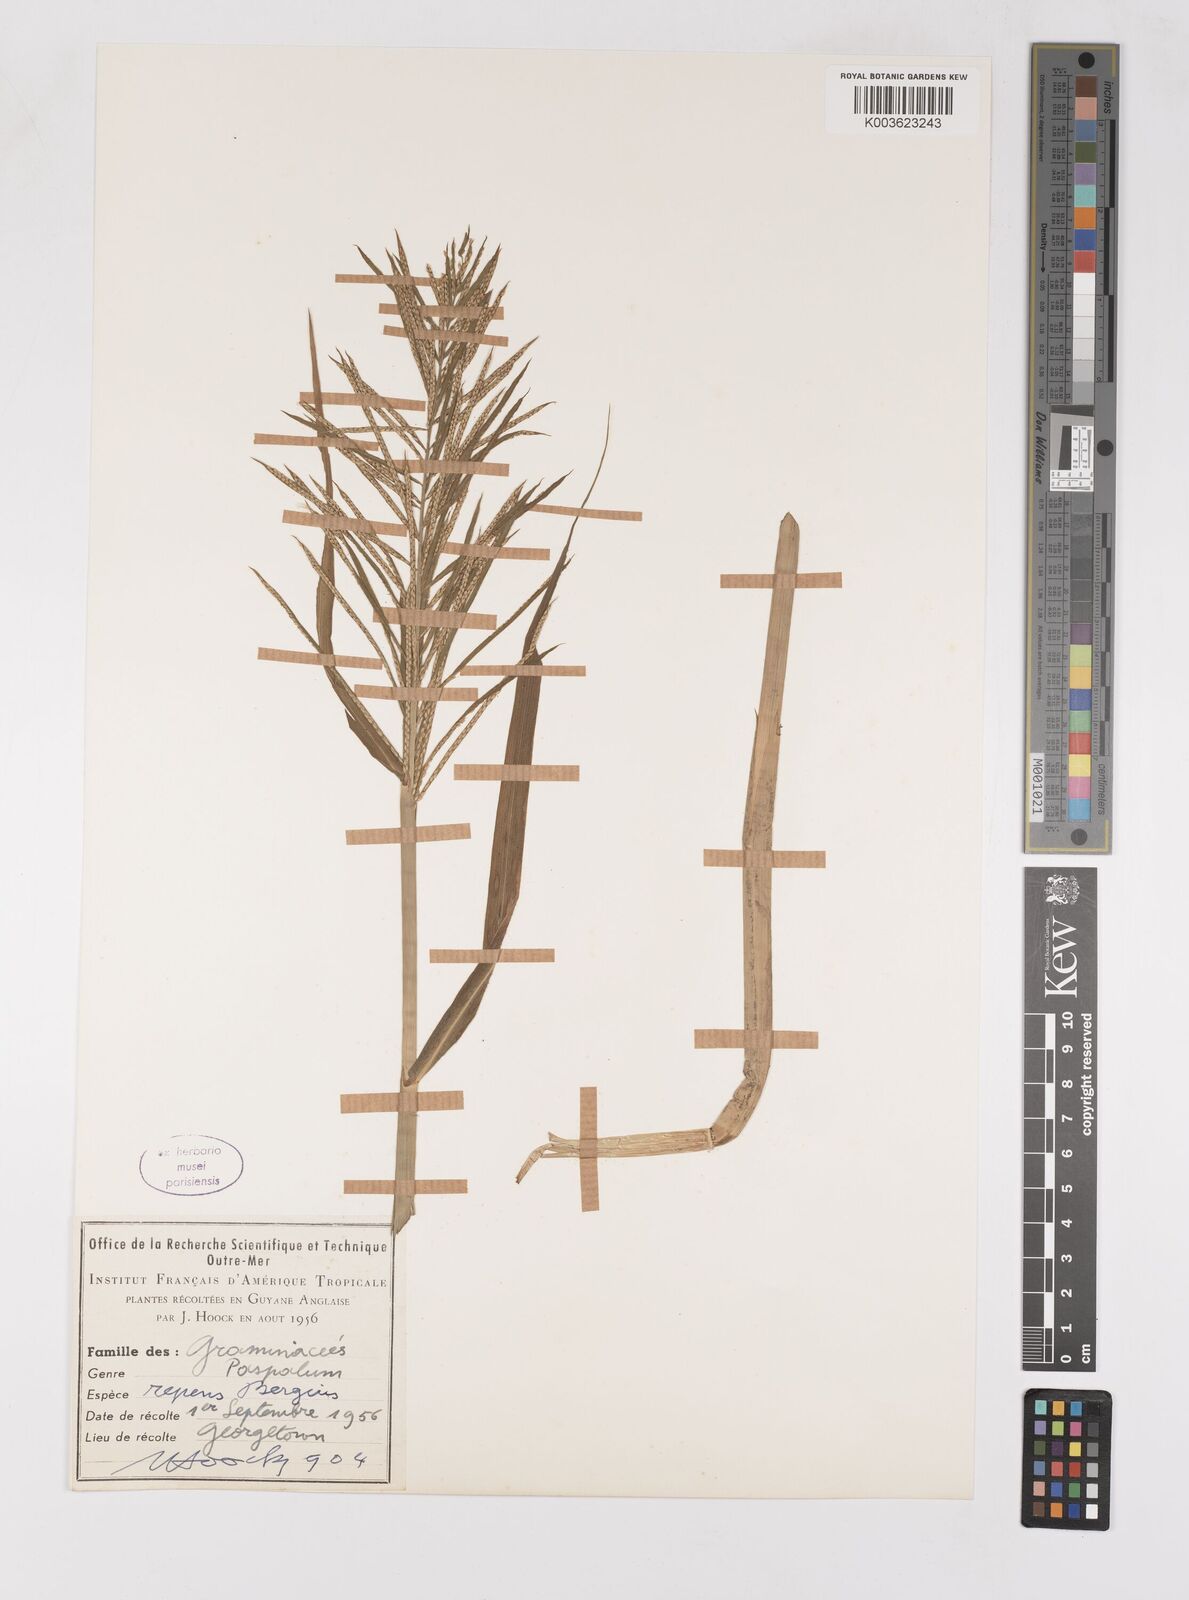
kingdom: Plantae
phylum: Tracheophyta
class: Liliopsida
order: Poales
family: Poaceae
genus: Paspalum
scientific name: Paspalum repens
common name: Water paspalum
